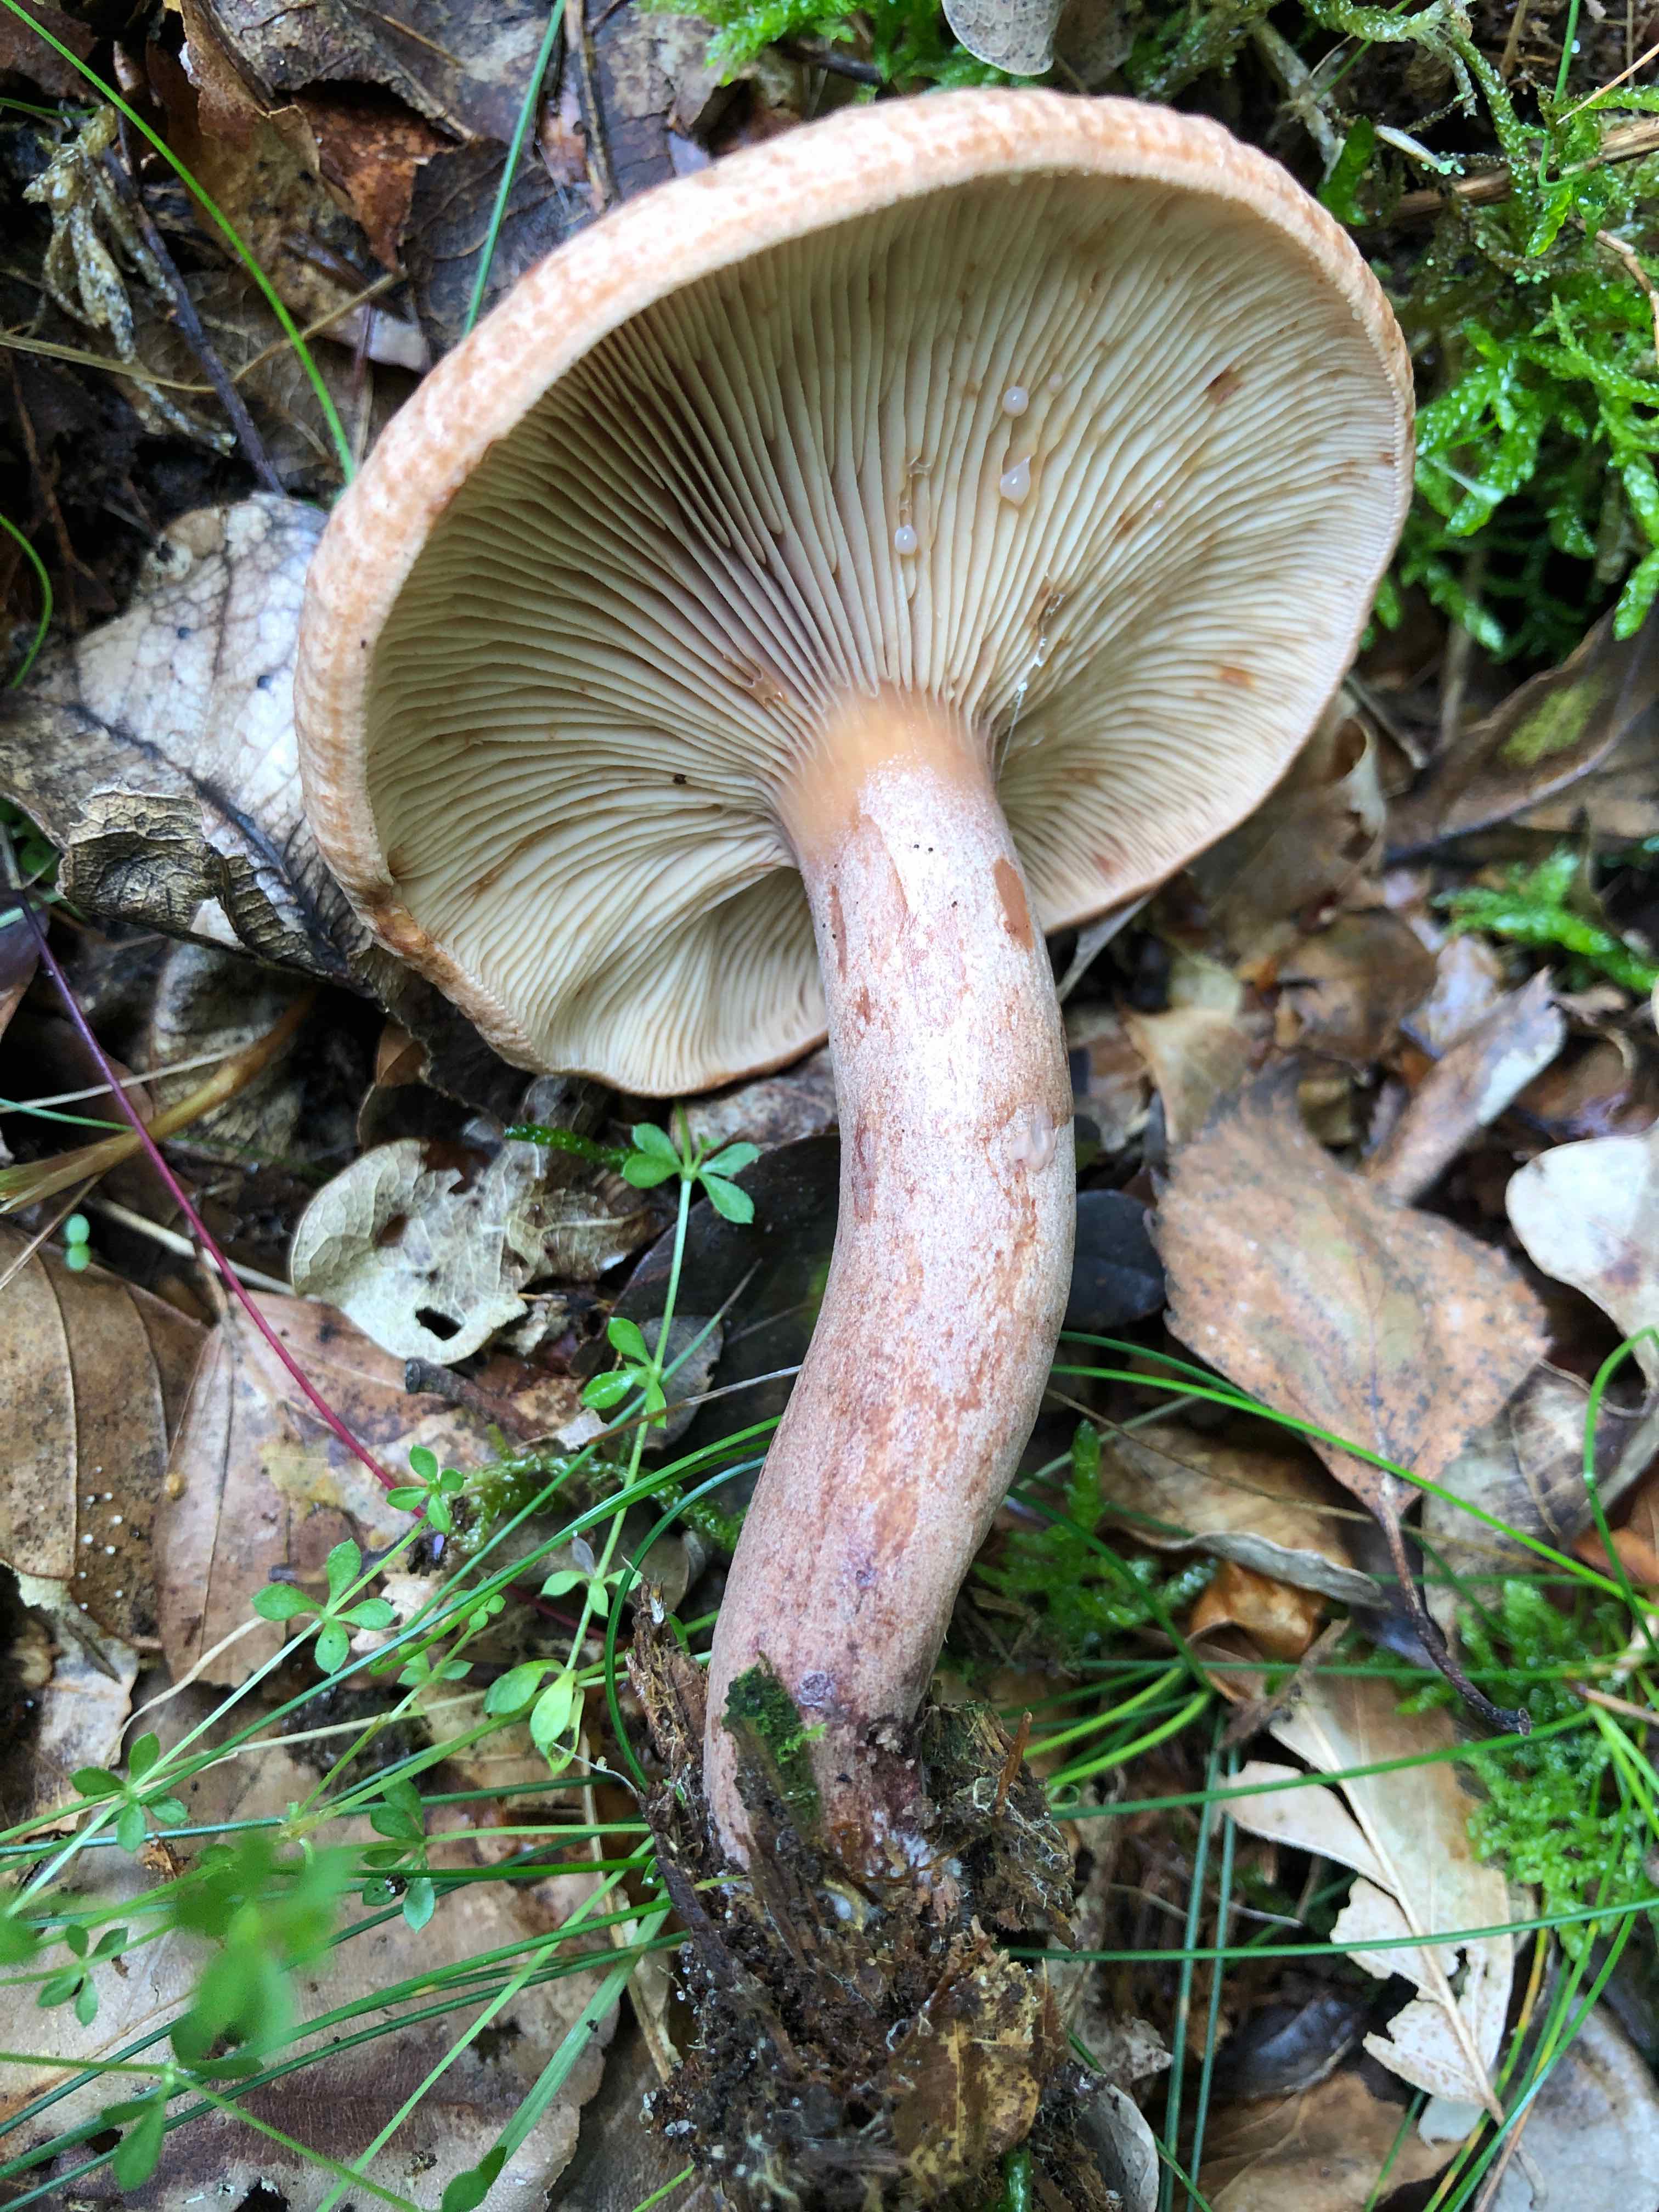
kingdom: Fungi
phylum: Basidiomycota
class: Agaricomycetes
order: Russulales
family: Russulaceae
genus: Lactarius
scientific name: Lactarius quietus
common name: ege-mælkehat
